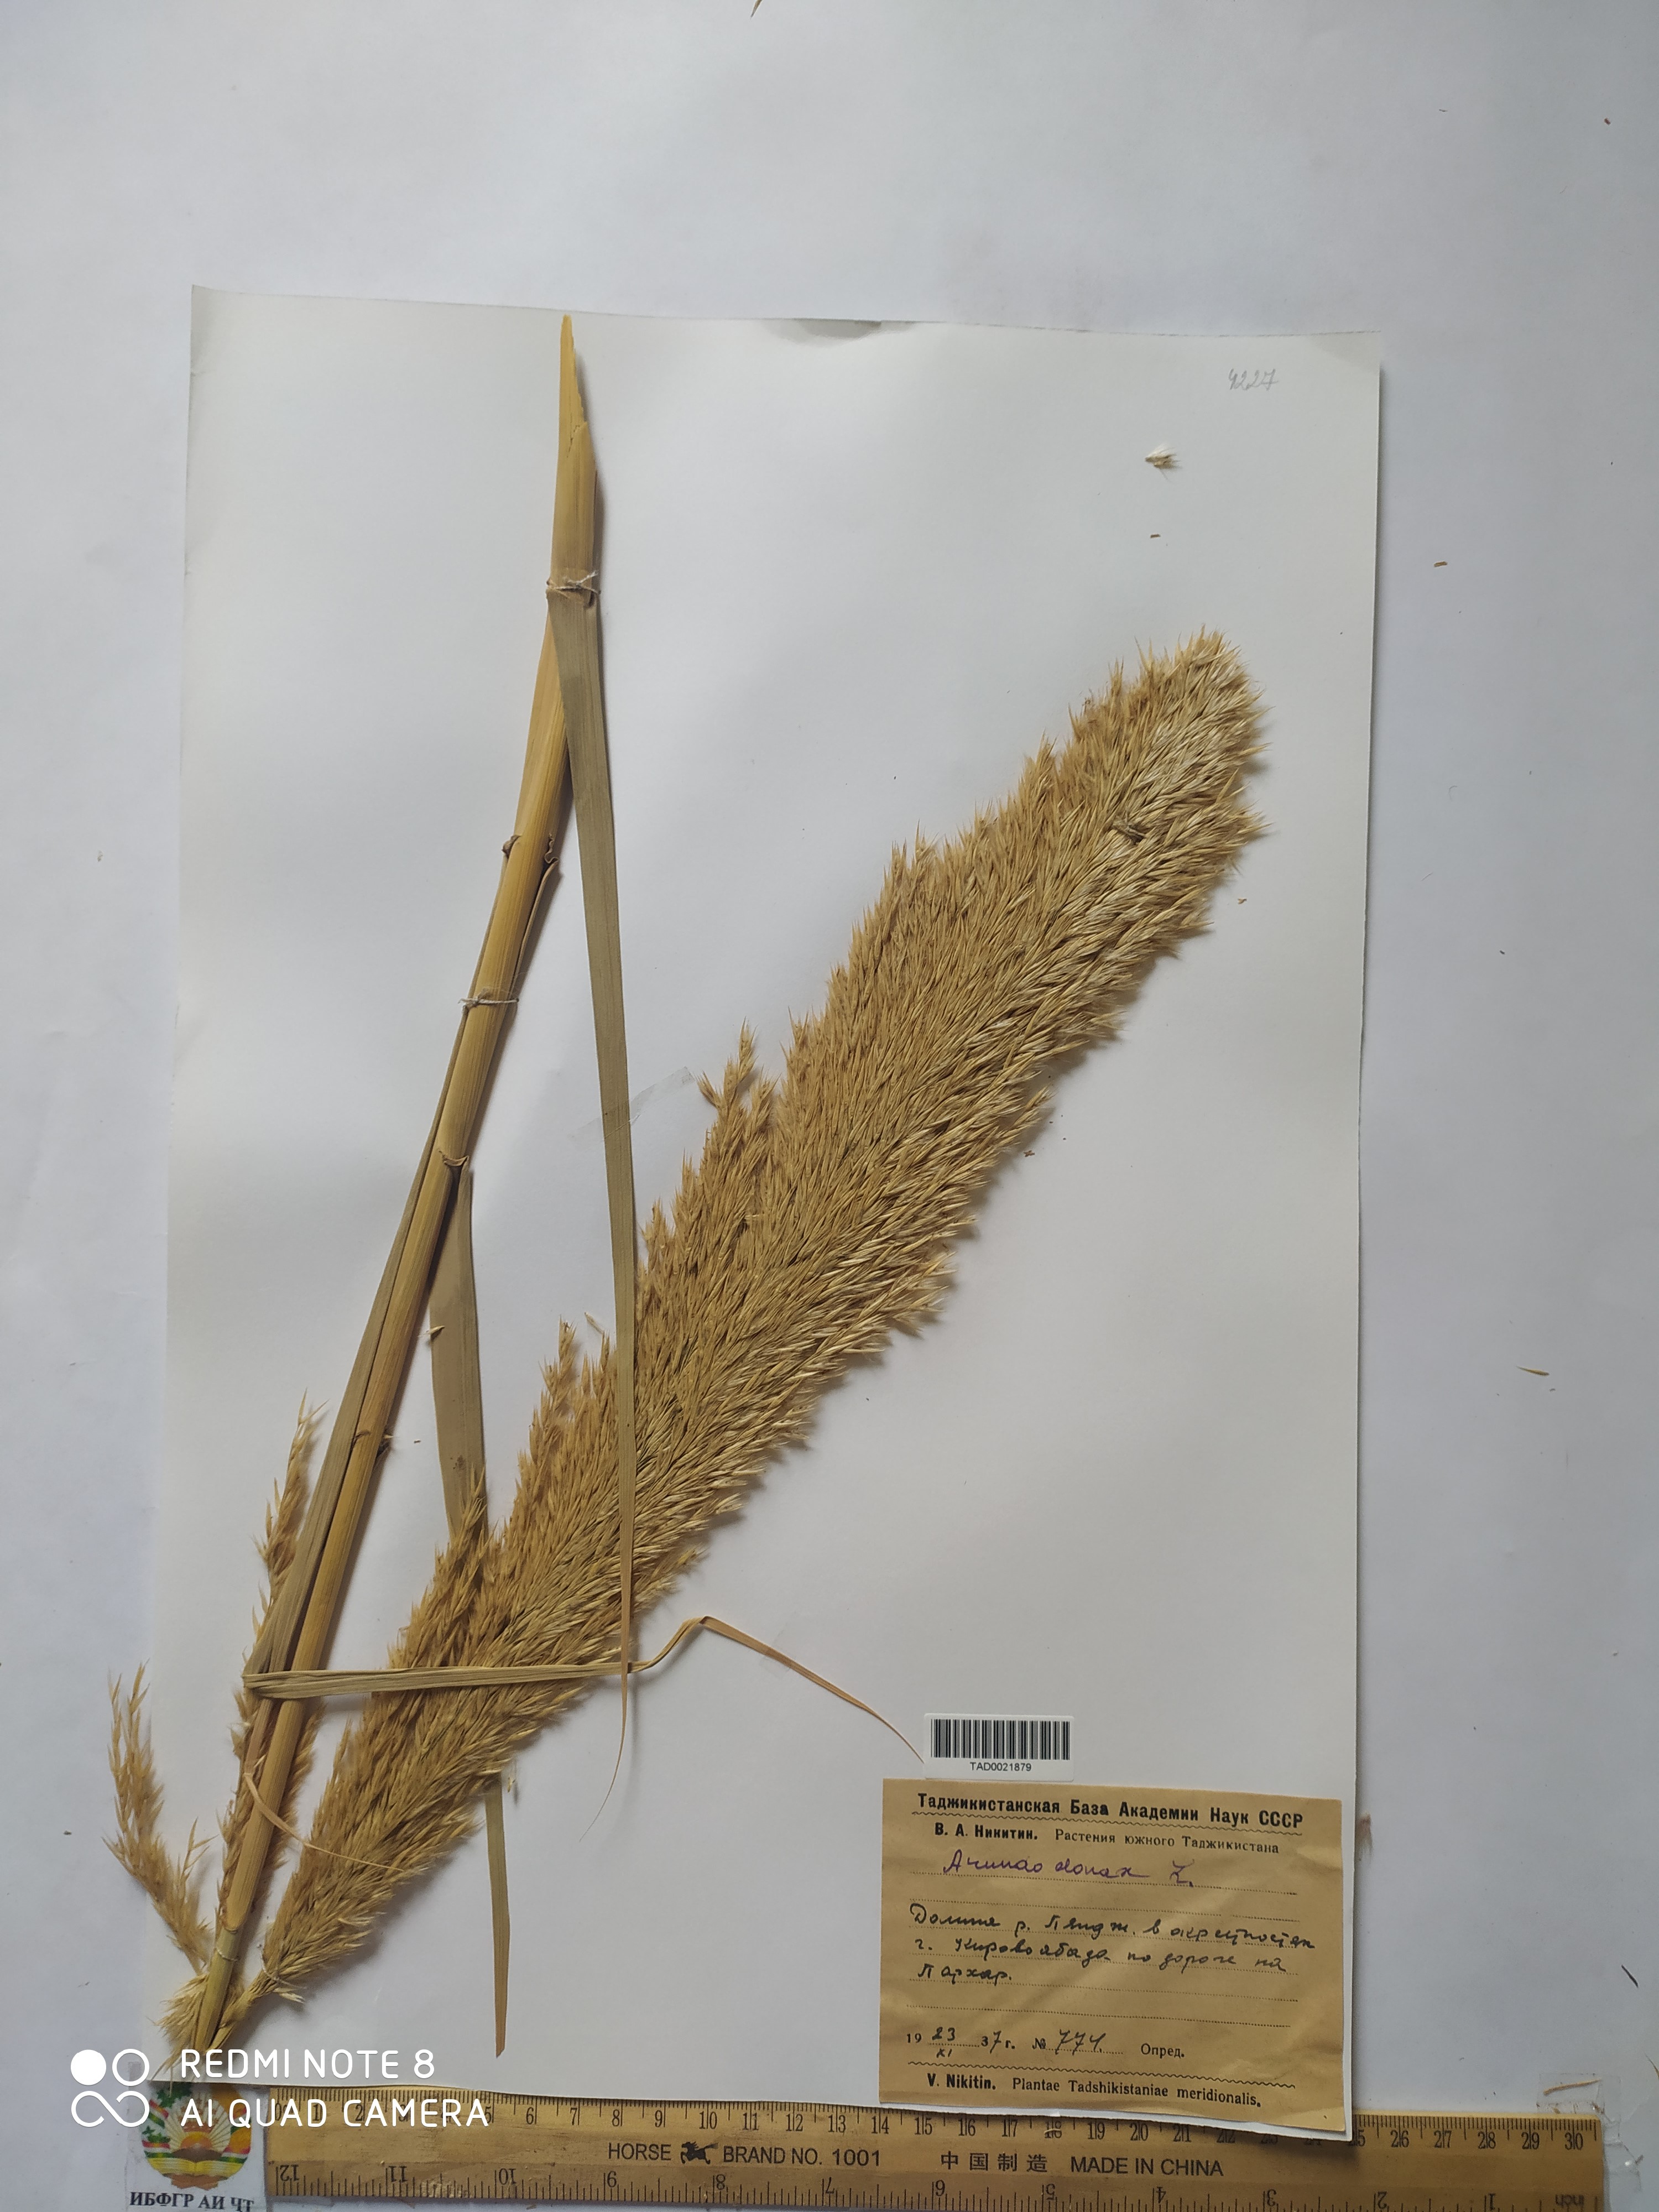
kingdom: Plantae
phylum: Tracheophyta
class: Liliopsida
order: Poales
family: Poaceae
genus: Arundo
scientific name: Arundo donax
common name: Giant reed
